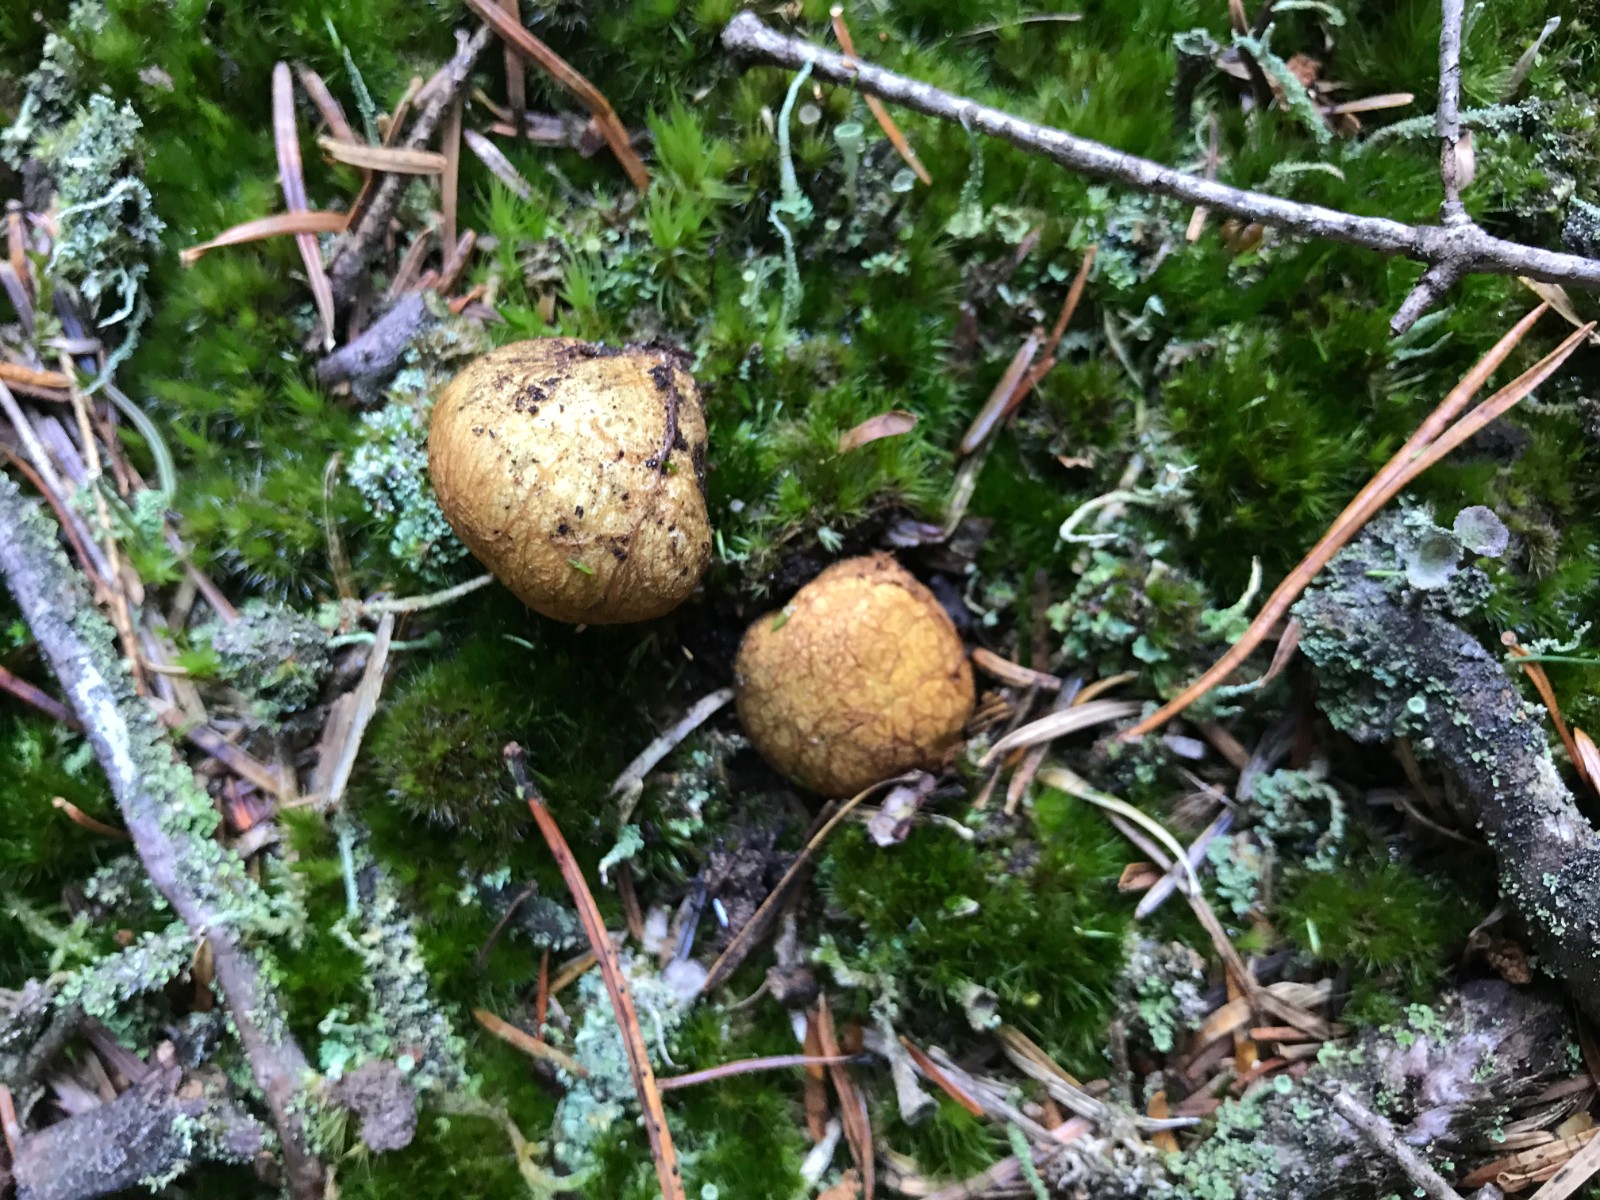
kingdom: Fungi
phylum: Basidiomycota
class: Agaricomycetes
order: Boletales
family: Rhizopogonaceae
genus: Rhizopogon
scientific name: Rhizopogon obtextus
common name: gul skægtrøffel
